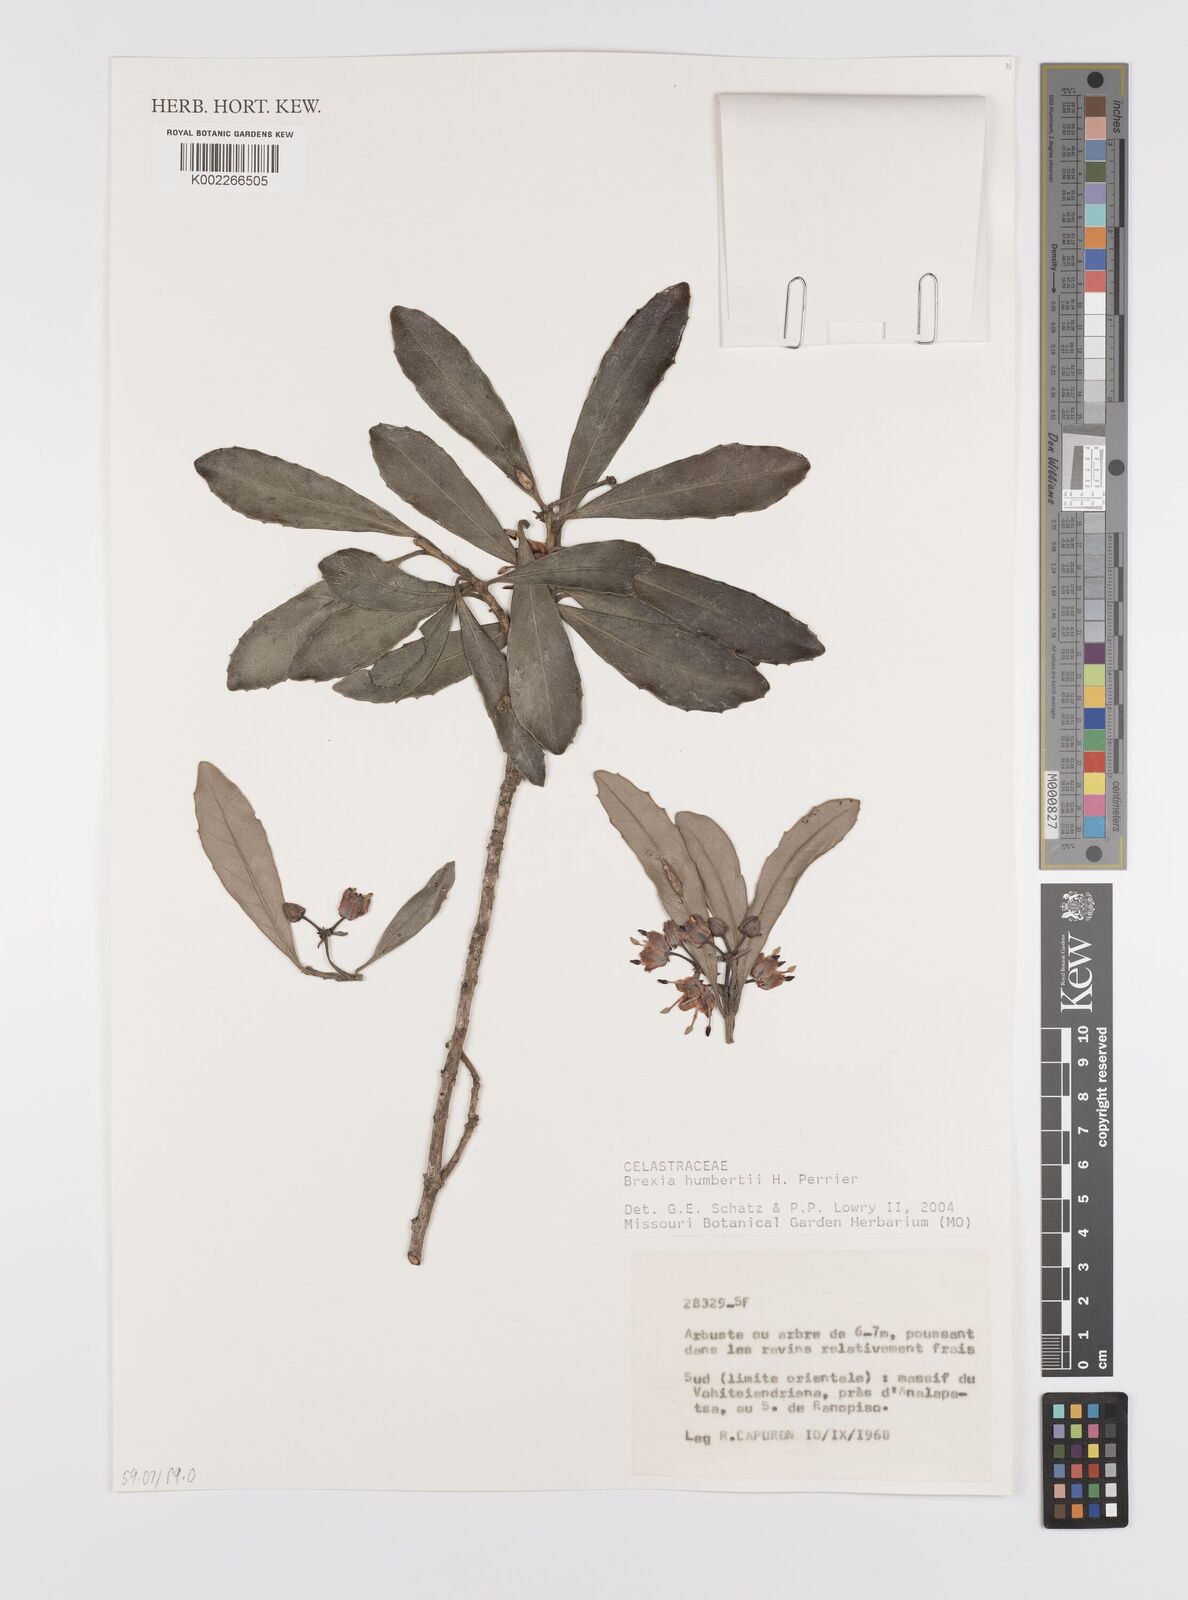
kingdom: Plantae
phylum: Tracheophyta
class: Magnoliopsida
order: Celastrales
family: Celastraceae
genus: Brexia
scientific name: Brexia humbertii
